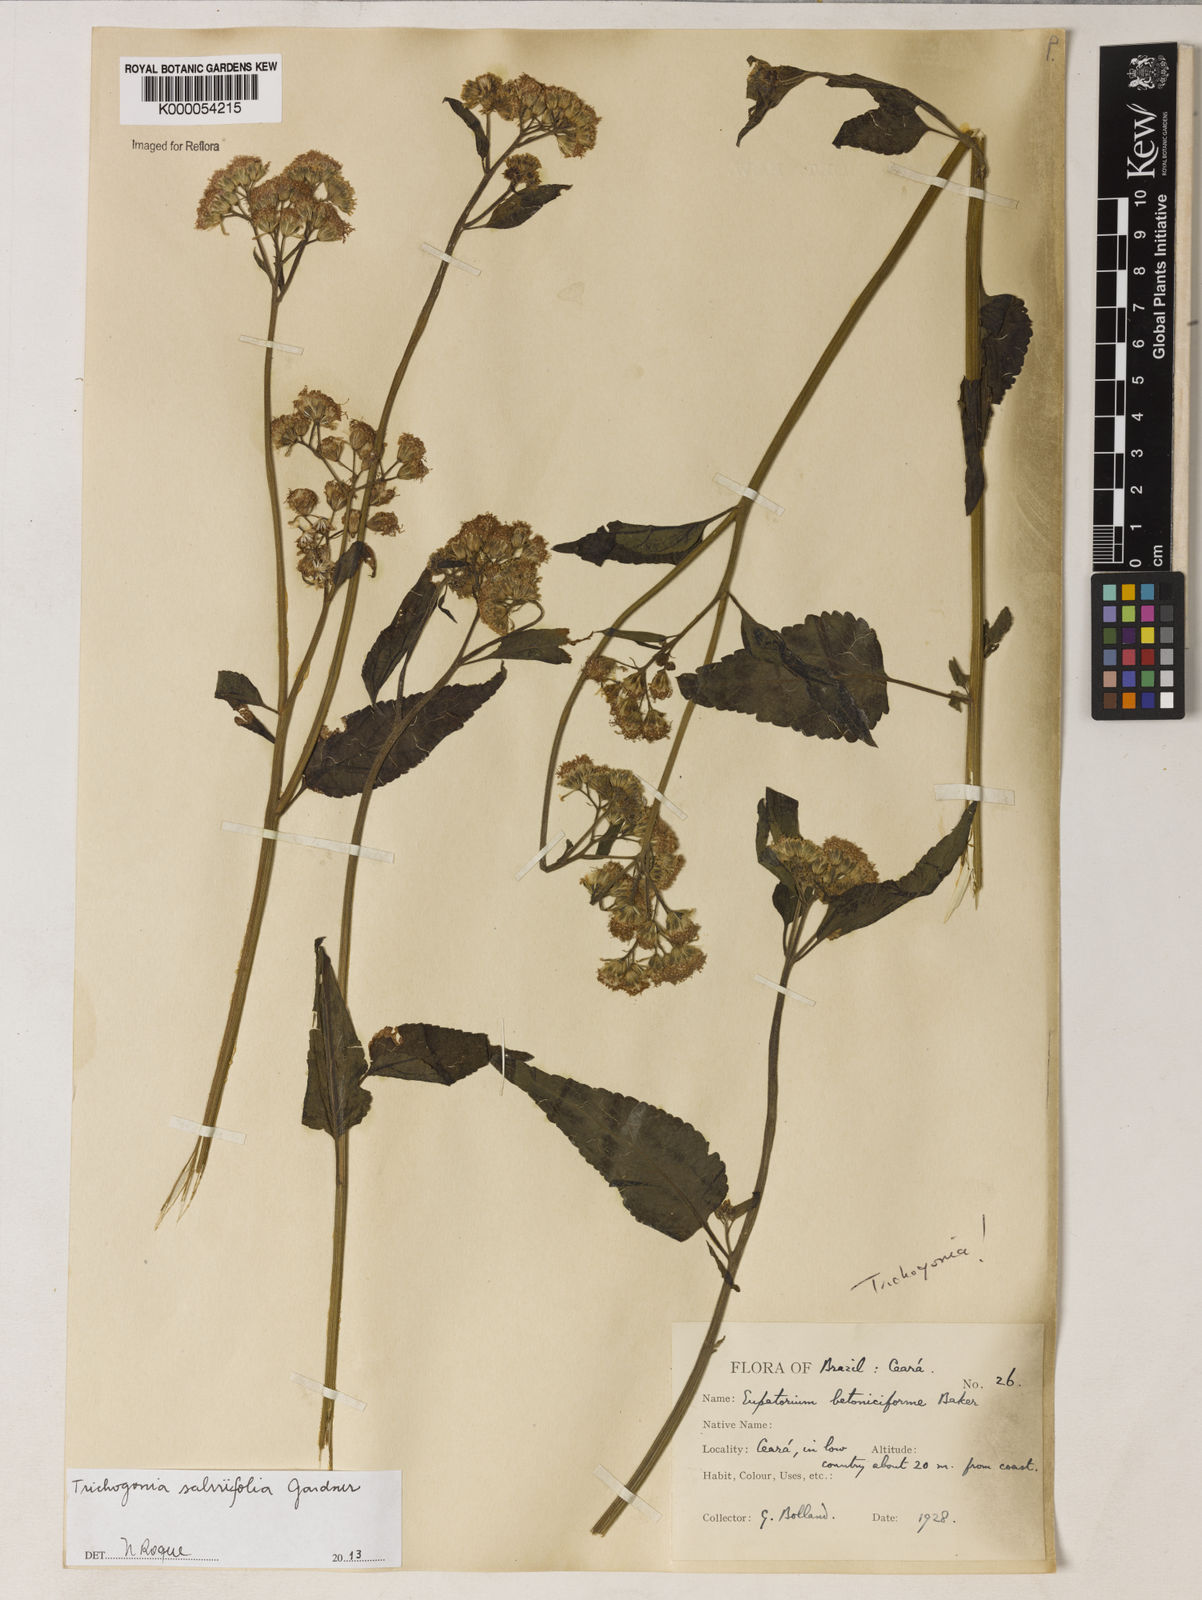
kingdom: Plantae
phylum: Tracheophyta
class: Magnoliopsida
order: Asterales
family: Asteraceae
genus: Trichogonia
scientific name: Trichogonia salviifolia
